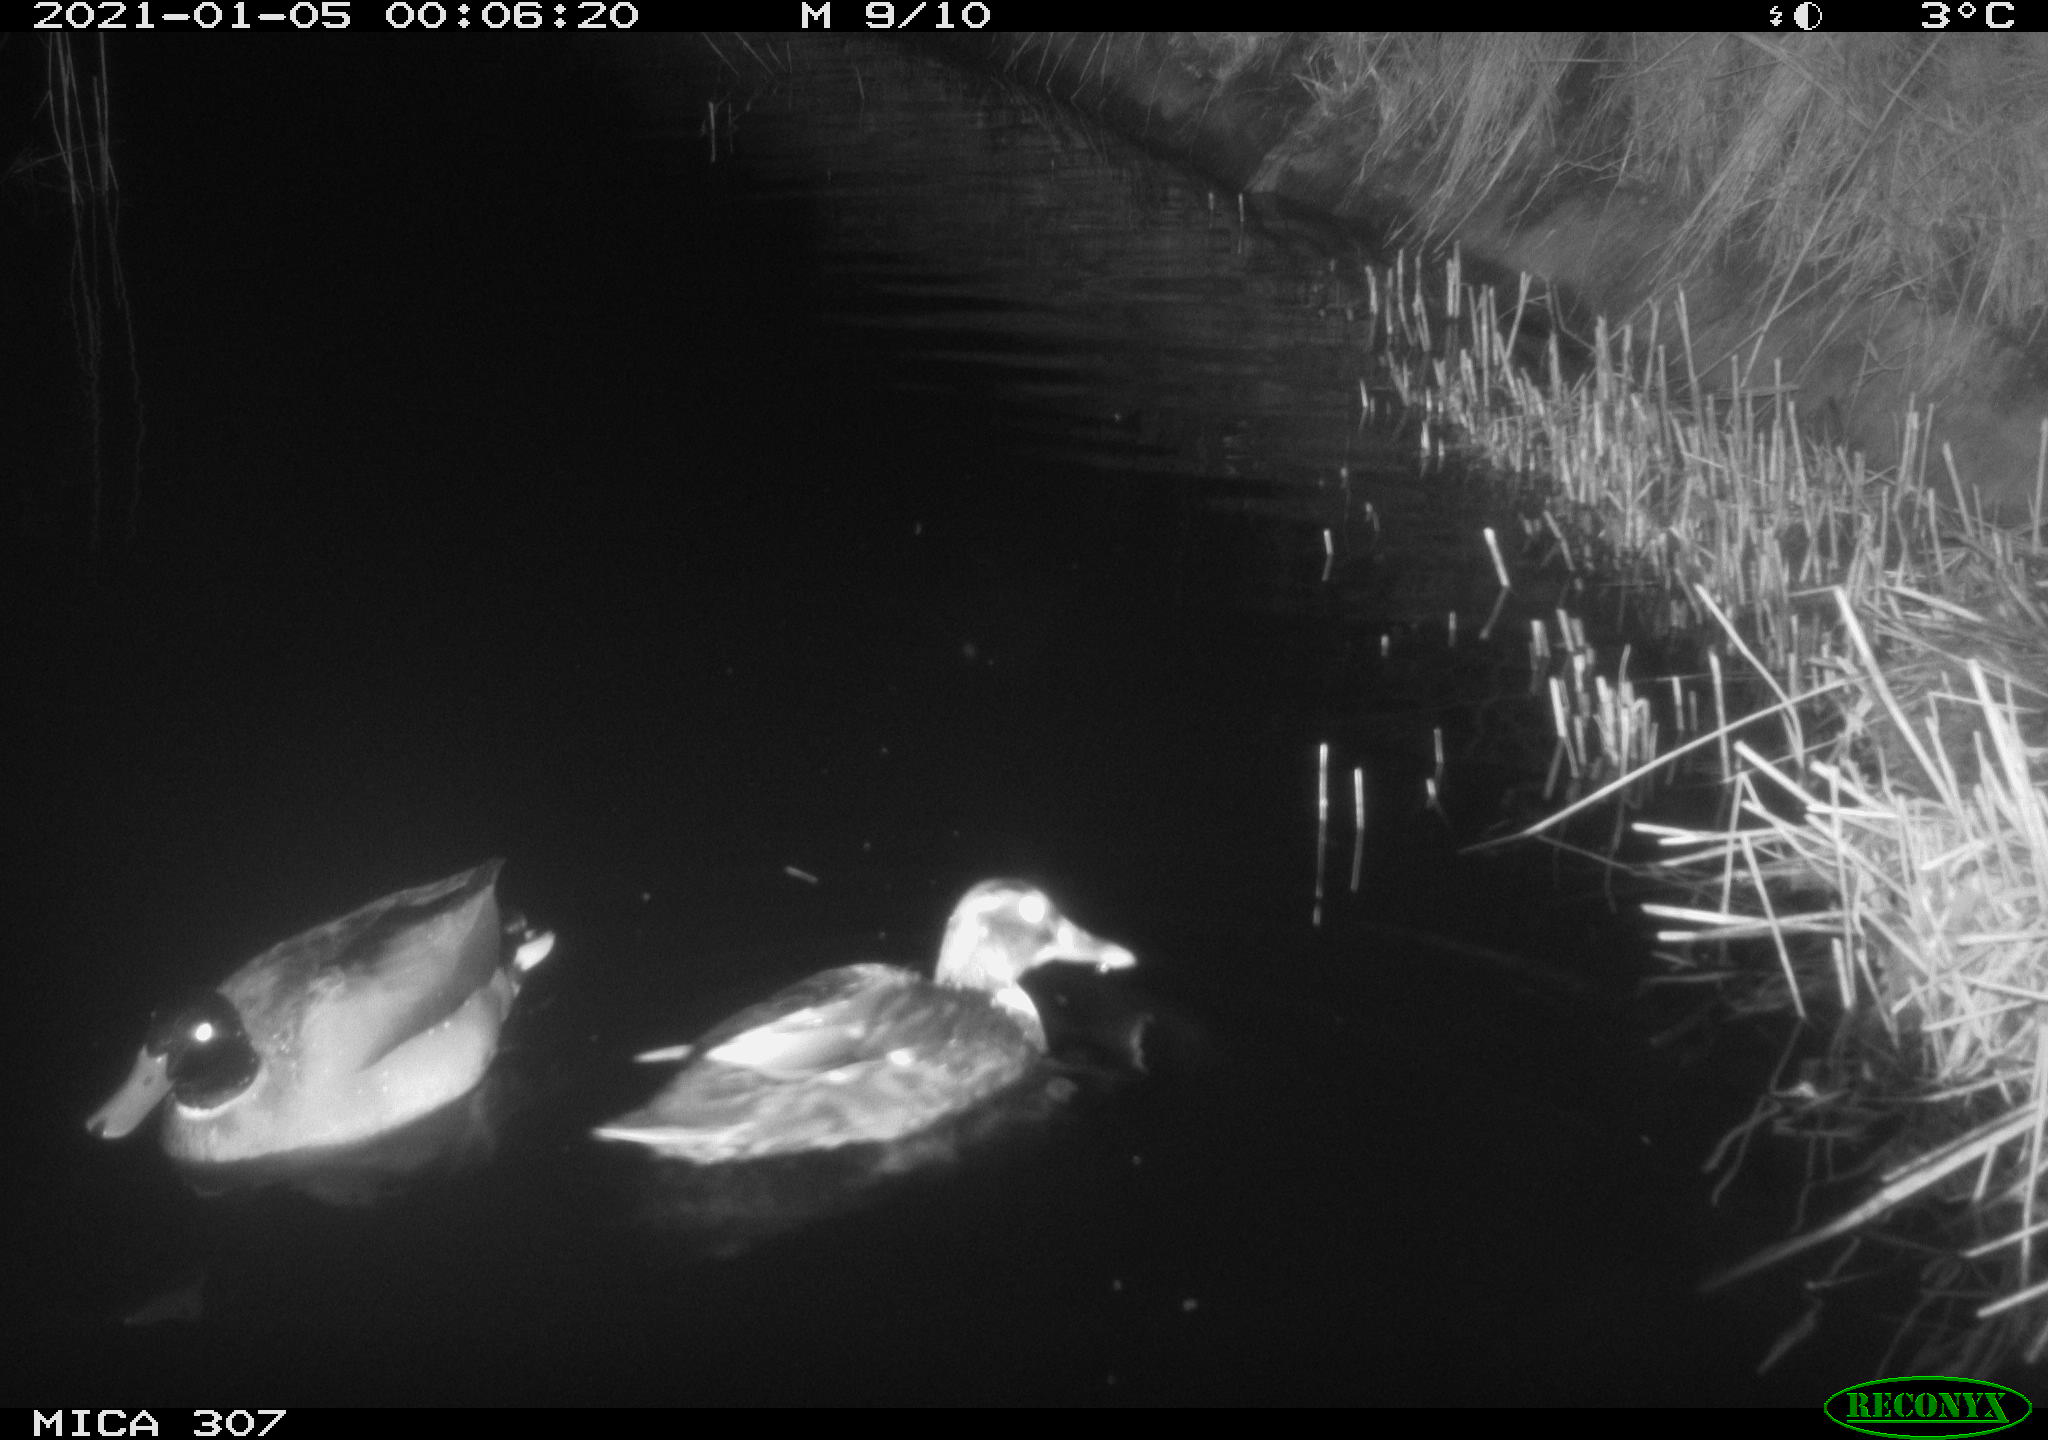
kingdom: Animalia
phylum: Chordata
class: Aves
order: Anseriformes
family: Anatidae
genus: Anas
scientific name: Anas platyrhynchos
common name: Mallard
